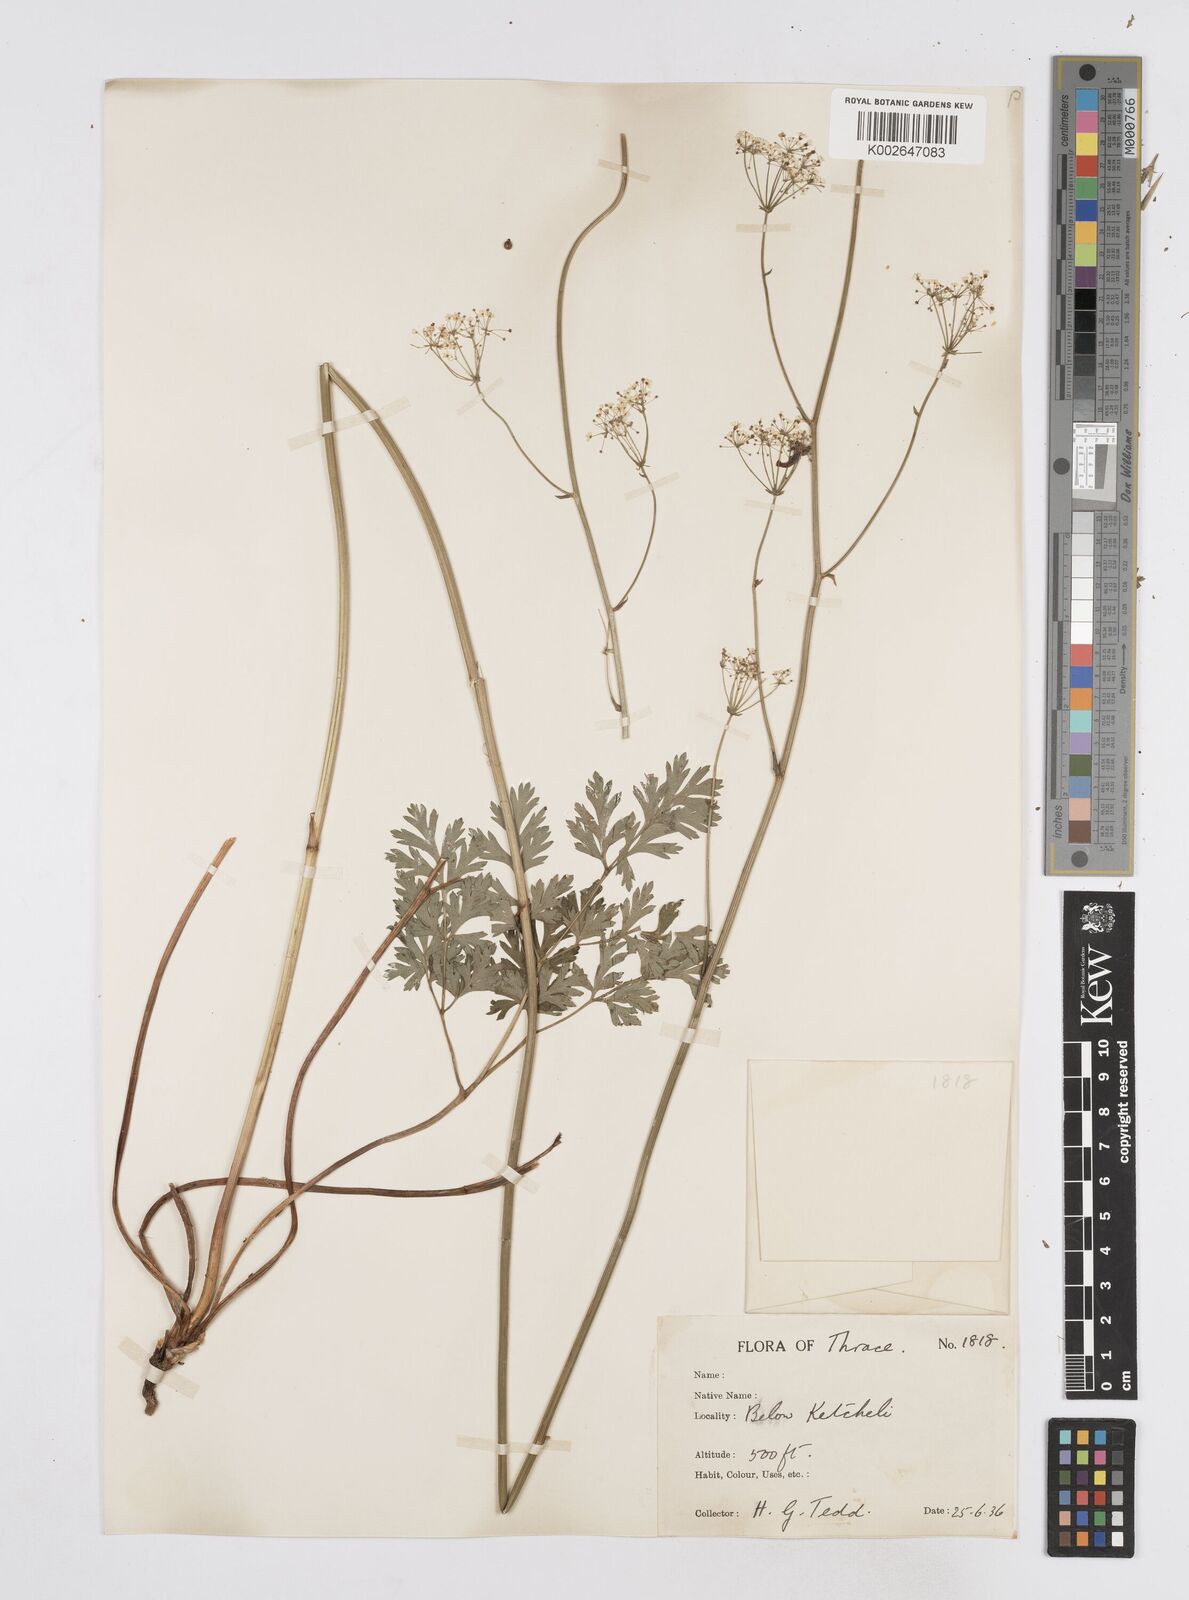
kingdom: Plantae
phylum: Tracheophyta
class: Magnoliopsida
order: Apiales
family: Apiaceae
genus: Physospermum
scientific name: Physospermum cornubiense
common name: Bladderseed
